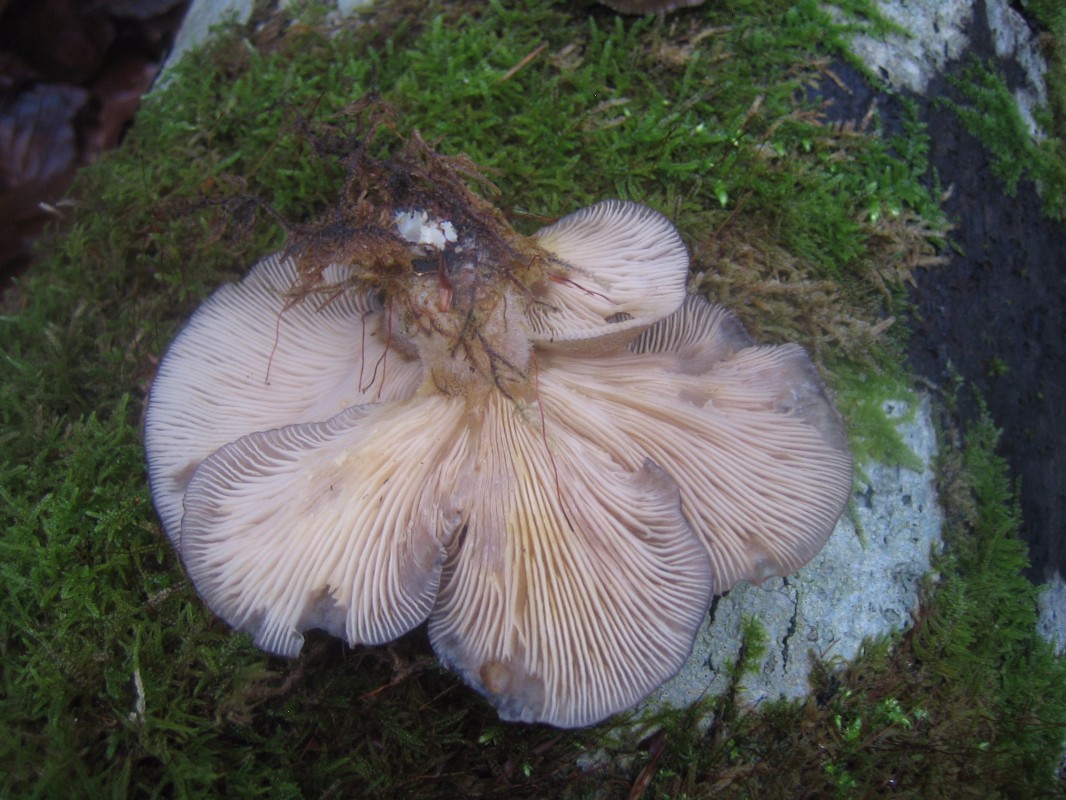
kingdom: Fungi
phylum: Basidiomycota
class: Agaricomycetes
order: Agaricales
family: Sarcomyxaceae
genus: Sarcomyxa
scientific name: Sarcomyxa serotina
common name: gummihat
